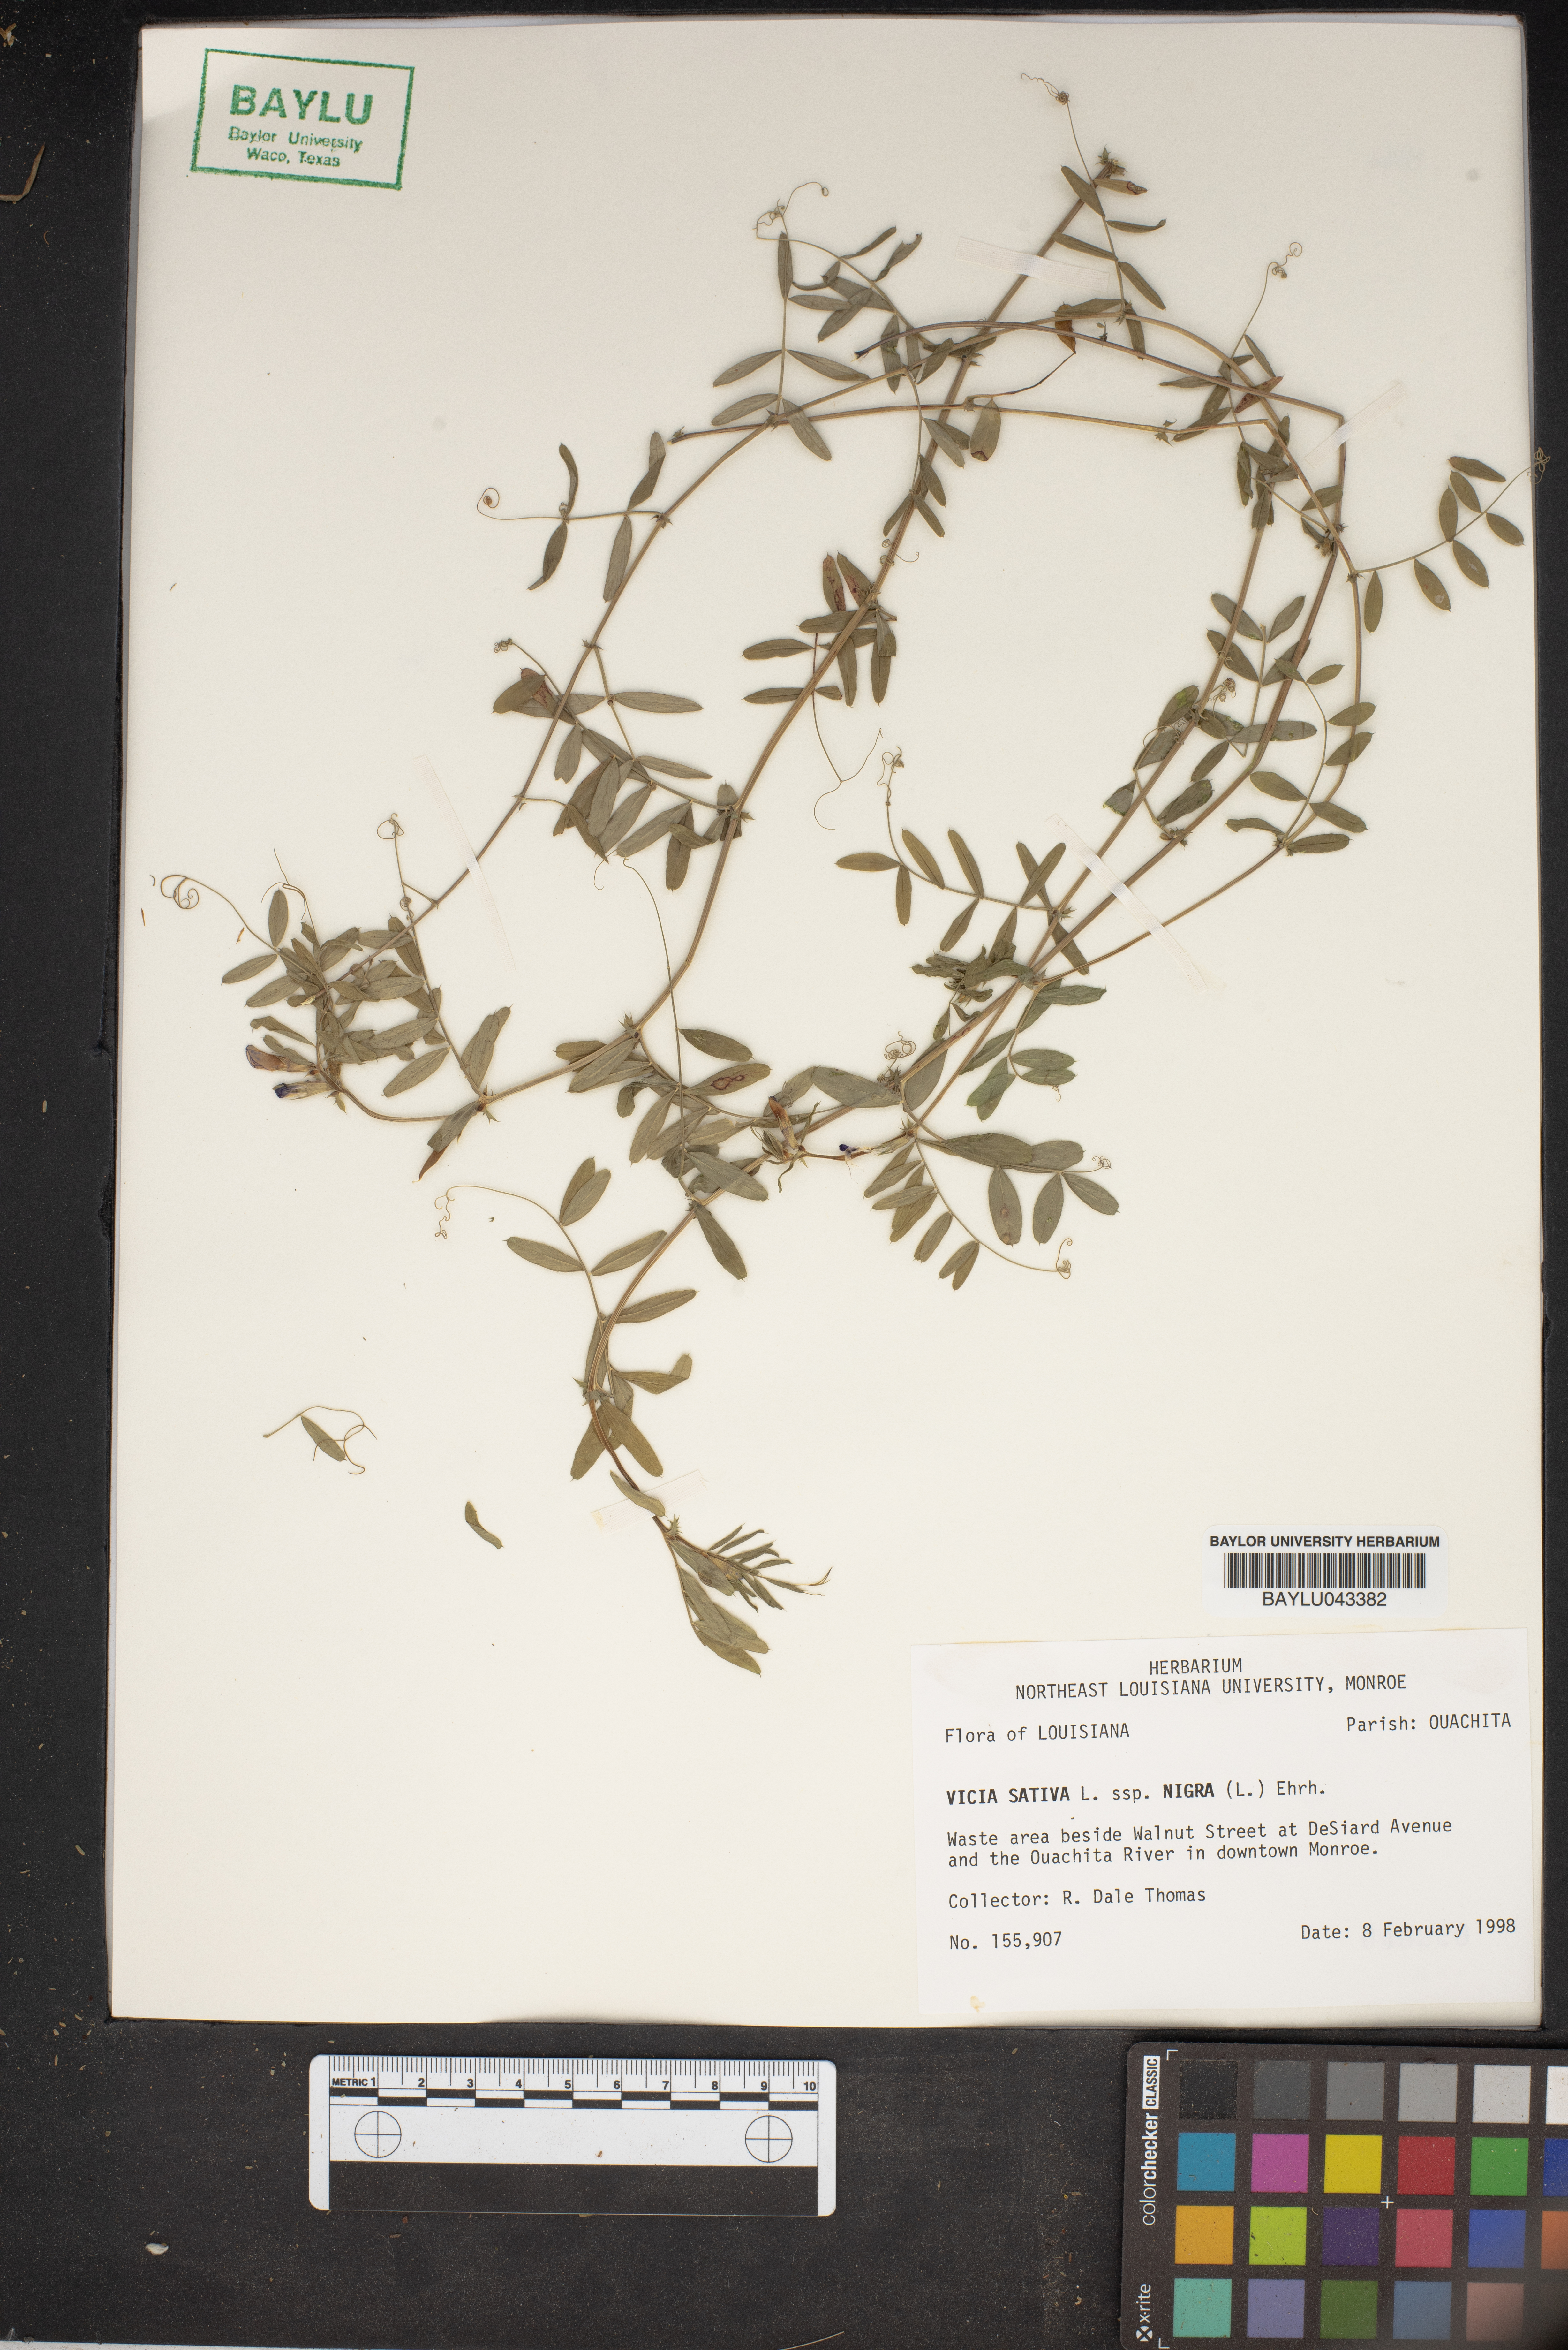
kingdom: Plantae
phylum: Tracheophyta
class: Magnoliopsida
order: Fabales
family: Fabaceae
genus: Vicia
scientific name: Vicia sativa
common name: Garden vetch
